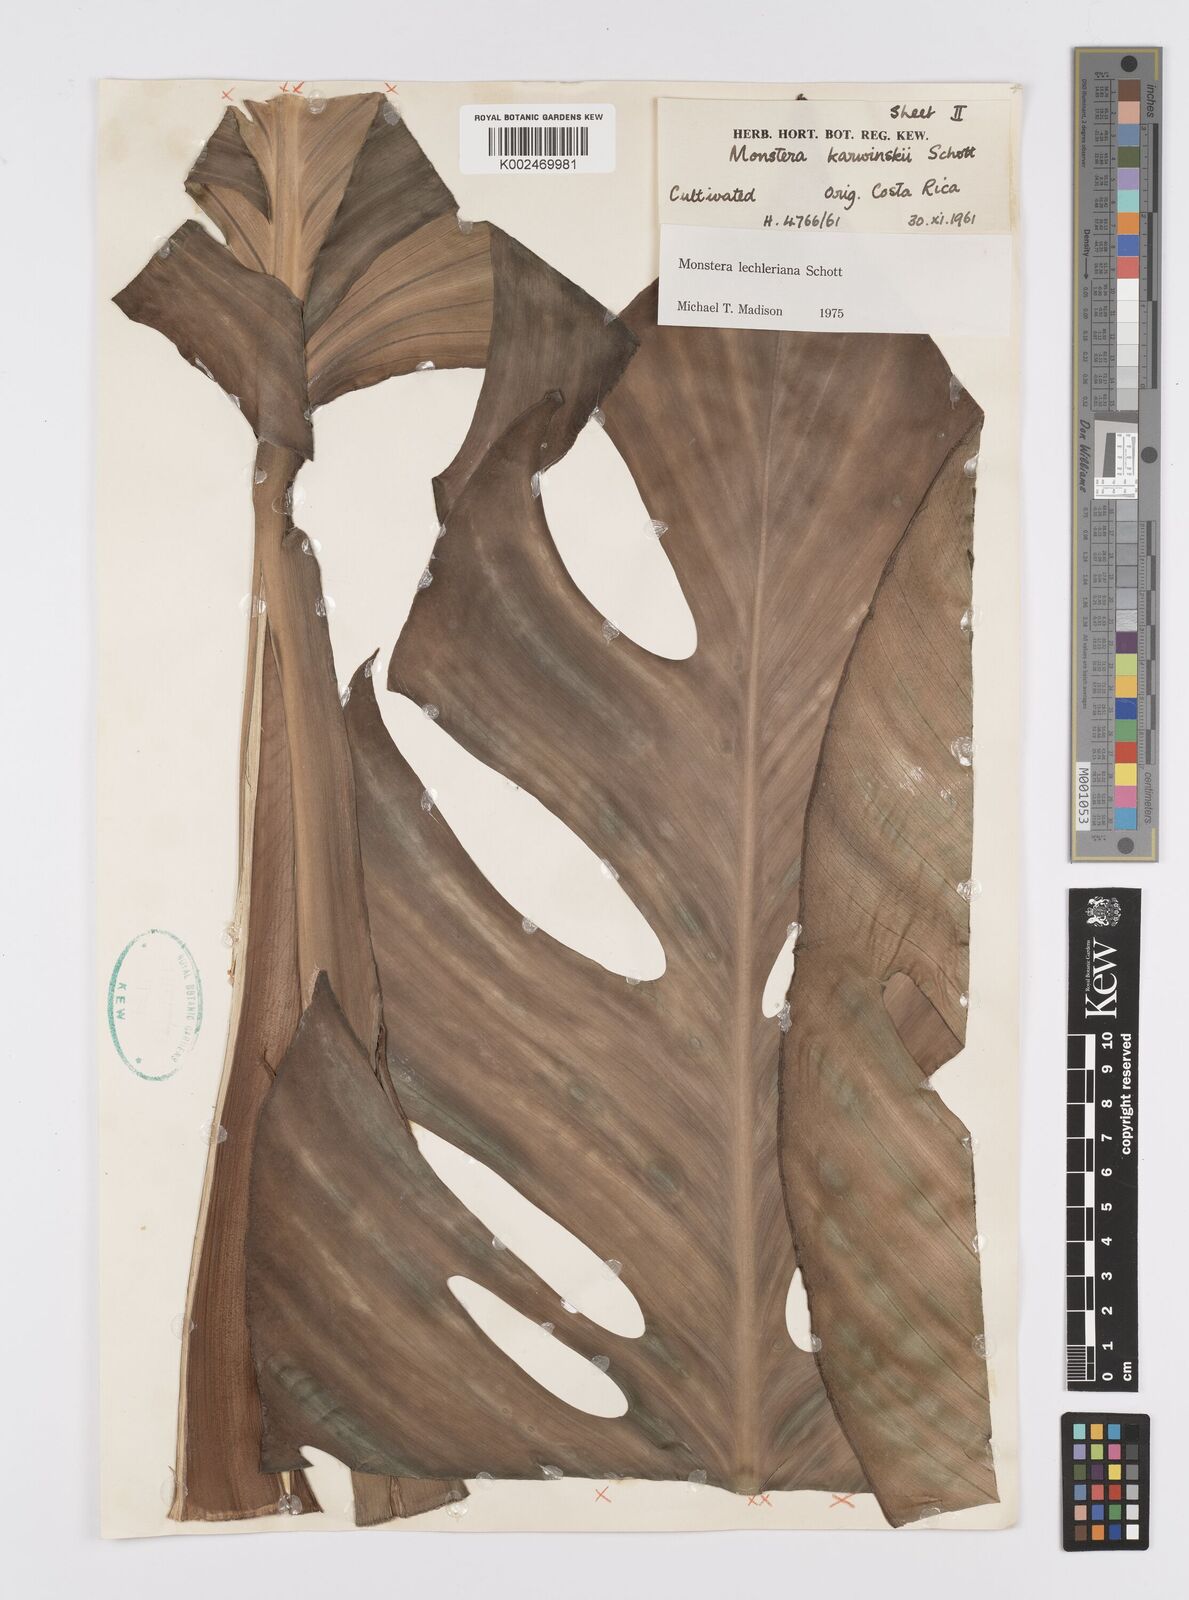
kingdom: Plantae
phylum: Tracheophyta
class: Liliopsida
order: Alismatales
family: Araceae
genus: Monstera
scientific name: Monstera lechleriana
